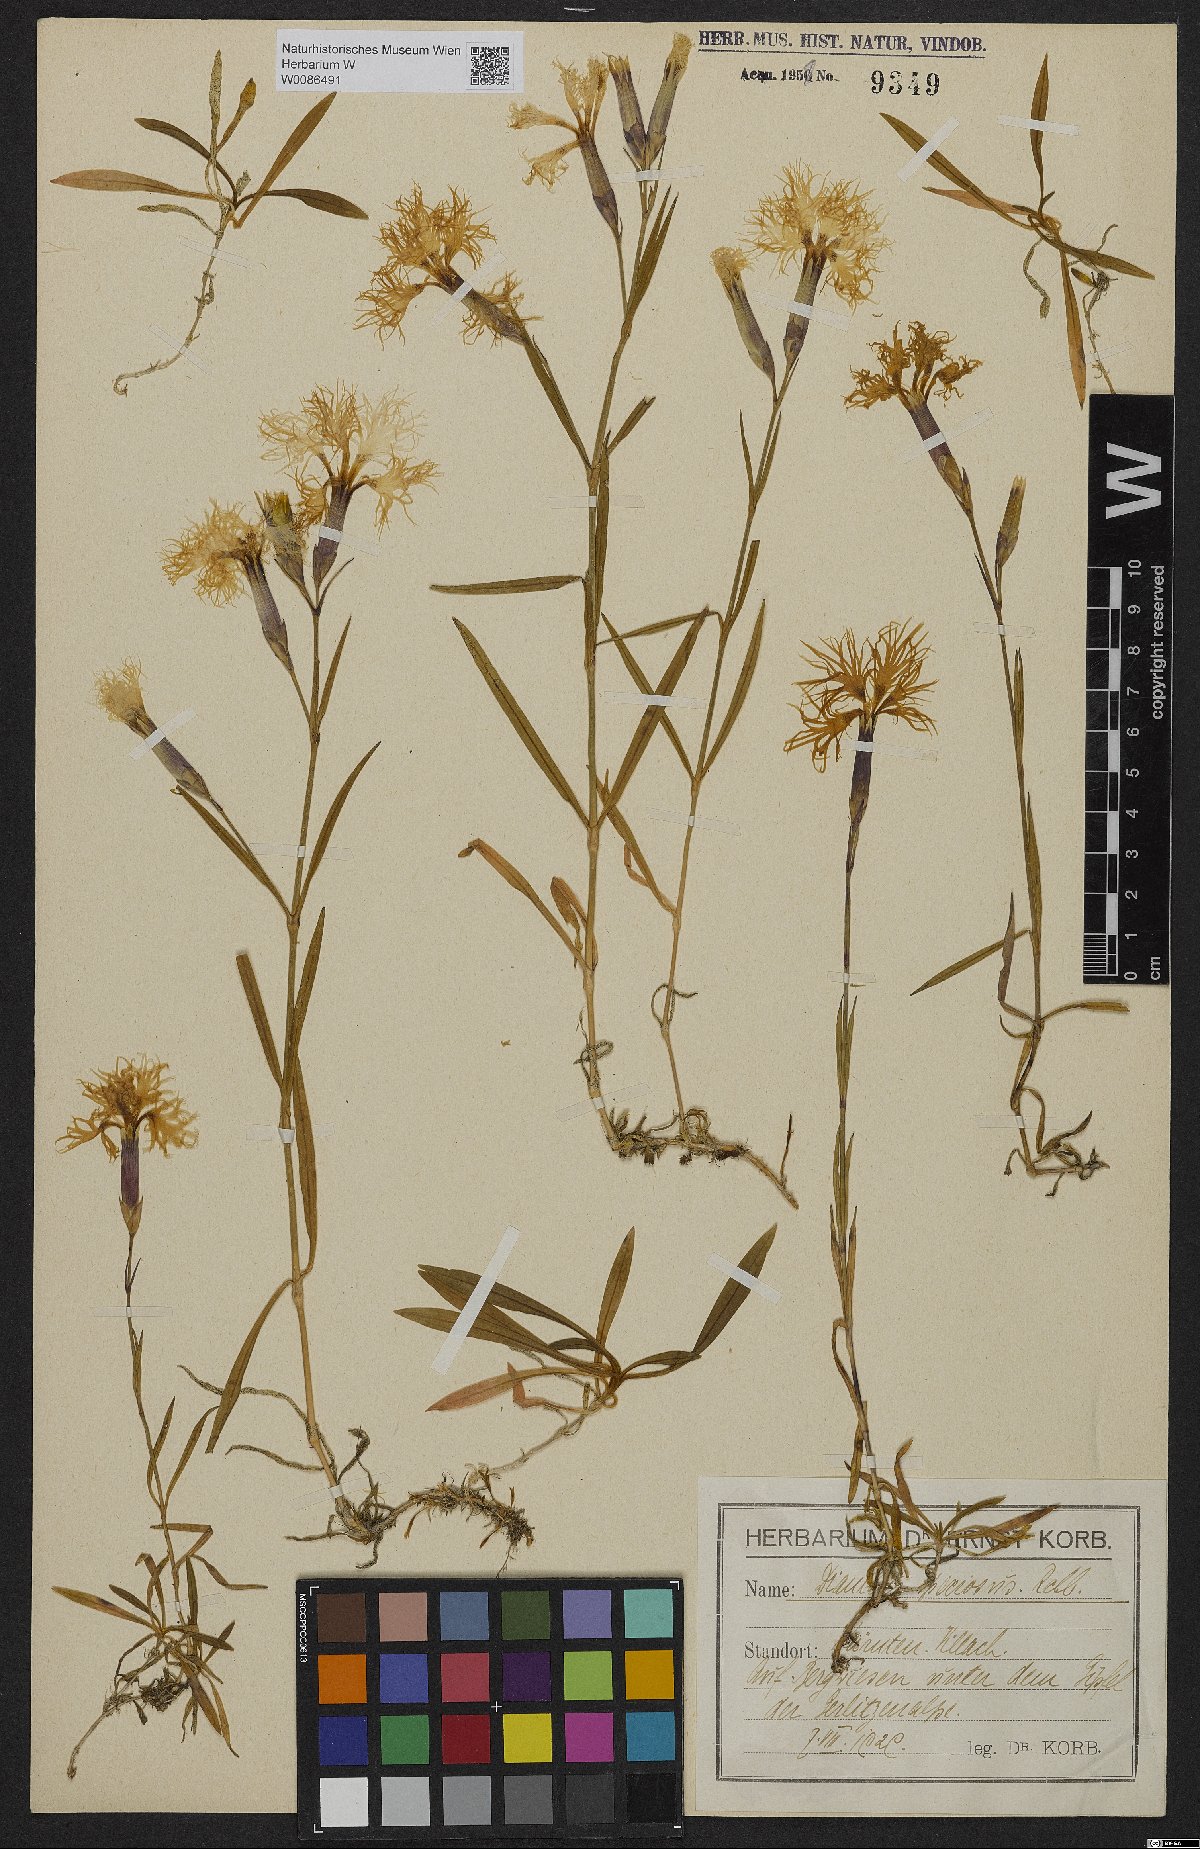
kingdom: Plantae
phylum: Tracheophyta
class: Magnoliopsida
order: Caryophyllales
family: Caryophyllaceae
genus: Dianthus
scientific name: Dianthus superbus
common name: Fringed pink
